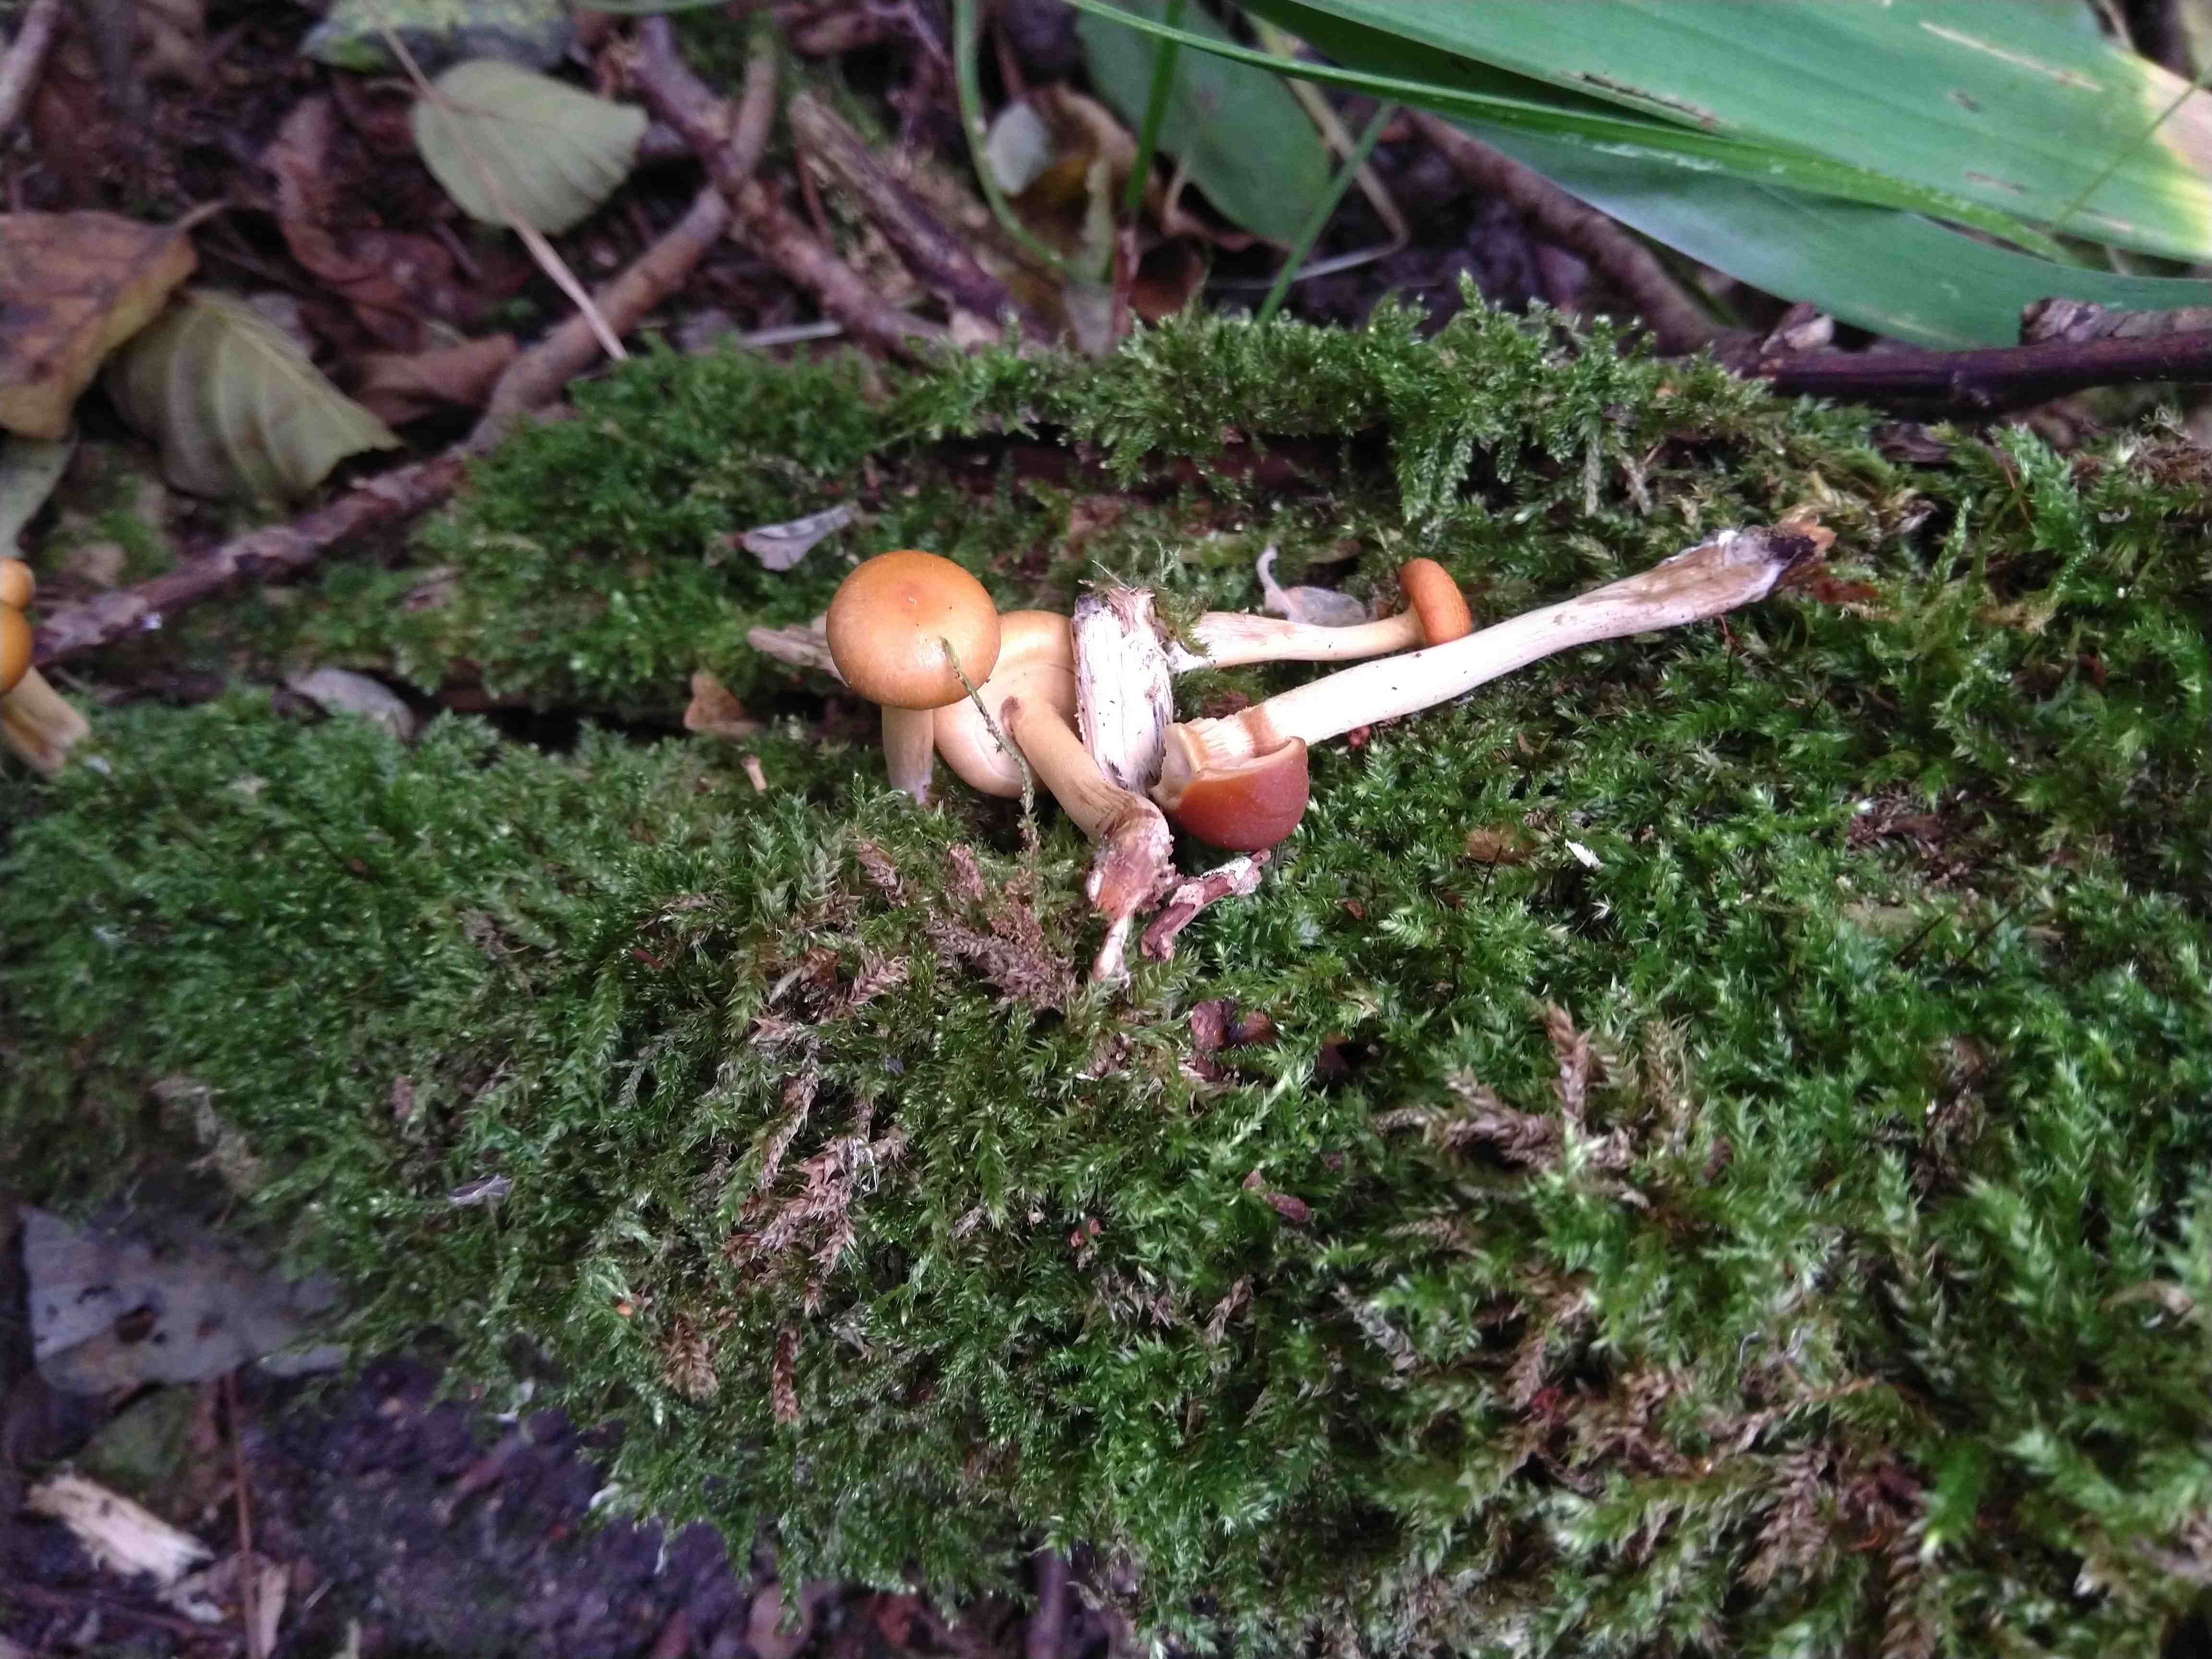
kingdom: Fungi
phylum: Basidiomycota
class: Agaricomycetes
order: Agaricales
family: Hymenogastraceae
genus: Galerina
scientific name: Galerina marginata
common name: randbæltet hjelmhat
